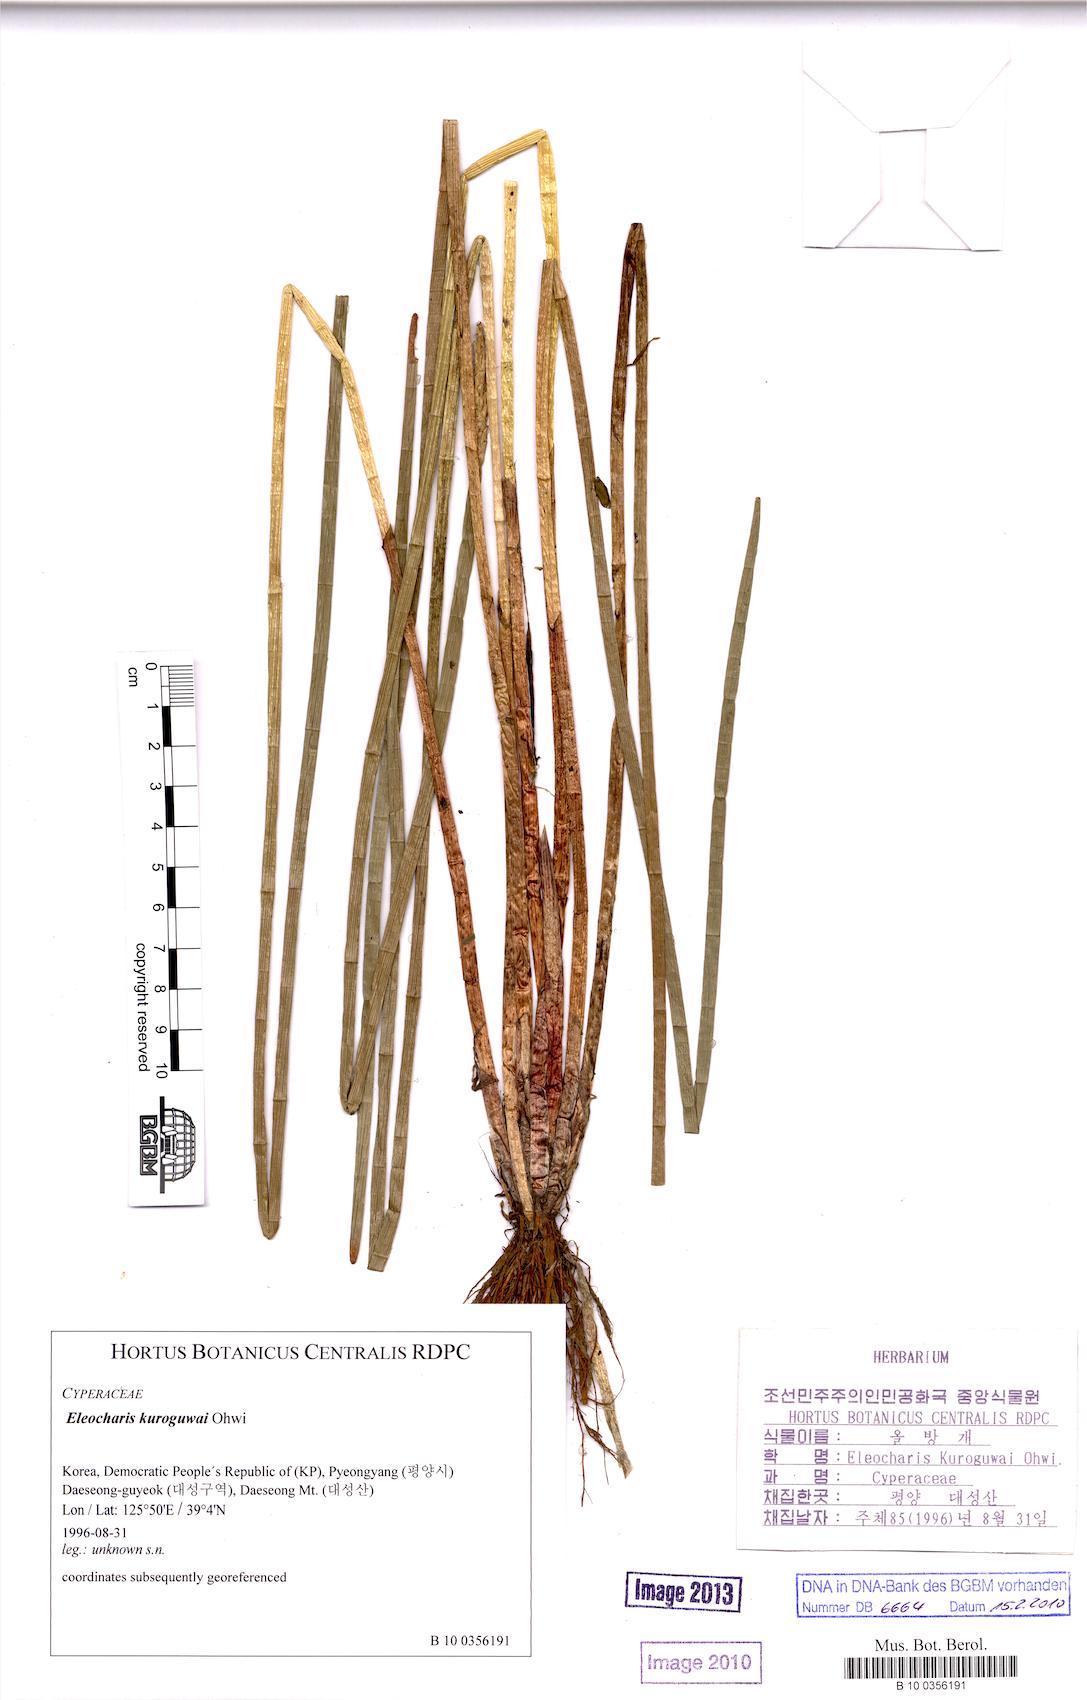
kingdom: Plantae
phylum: Tracheophyta
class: Liliopsida
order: Poales
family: Cyperaceae
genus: Eleocharis
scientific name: Eleocharis kuroguwai
